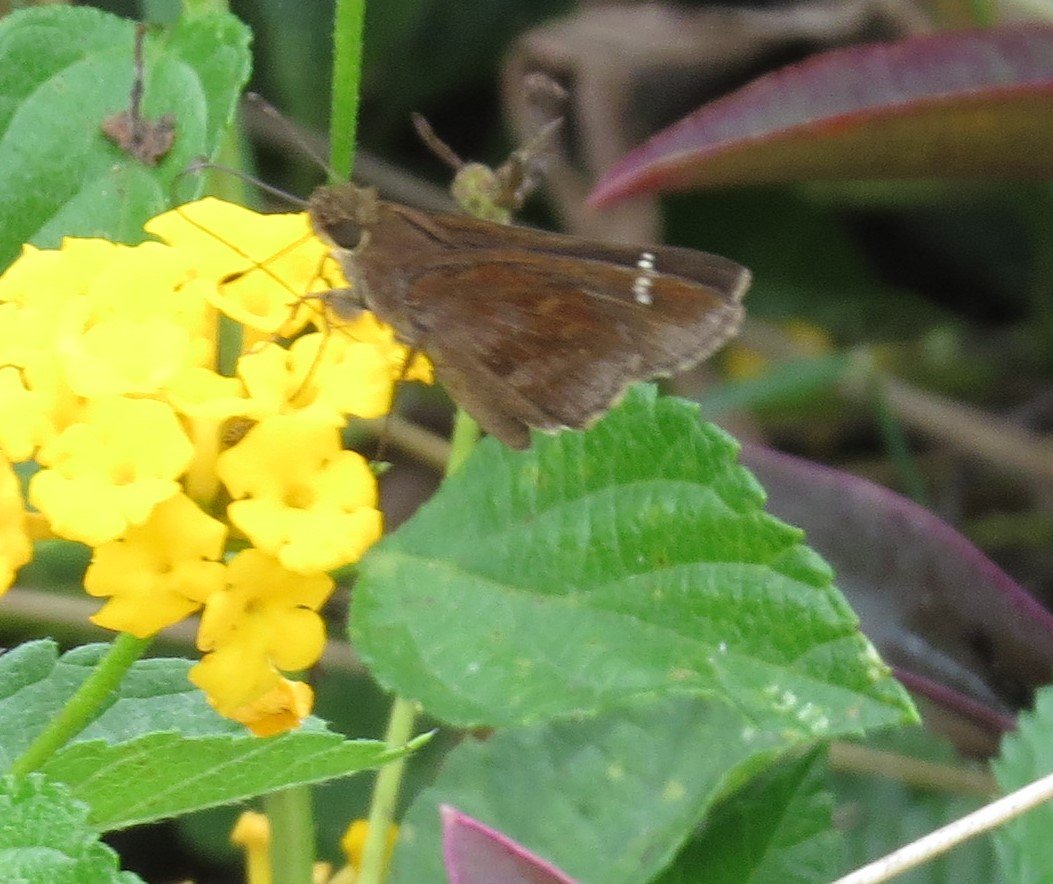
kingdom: Animalia
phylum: Arthropoda
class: Insecta
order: Lepidoptera
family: Hesperiidae
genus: Lerema
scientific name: Lerema accius
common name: Clouded Skipper
